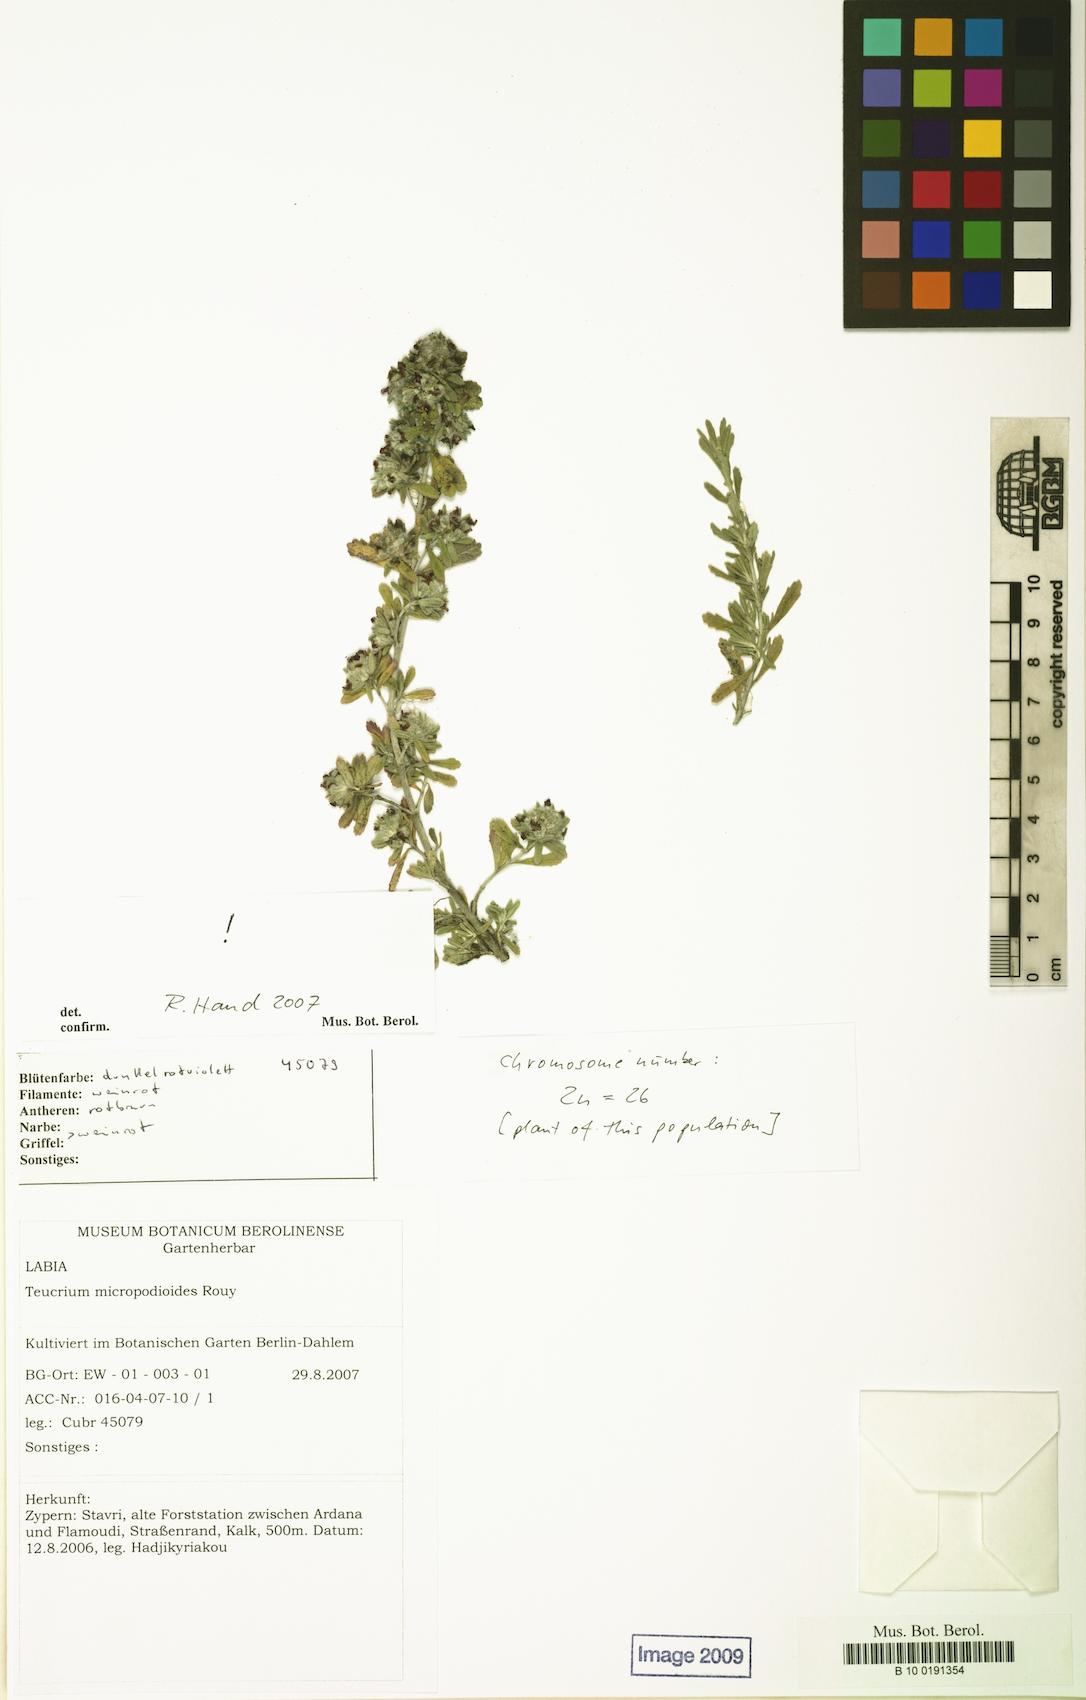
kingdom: Plantae
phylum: Tracheophyta
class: Magnoliopsida
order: Lamiales
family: Lamiaceae
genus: Teucrium
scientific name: Teucrium micropodioides
